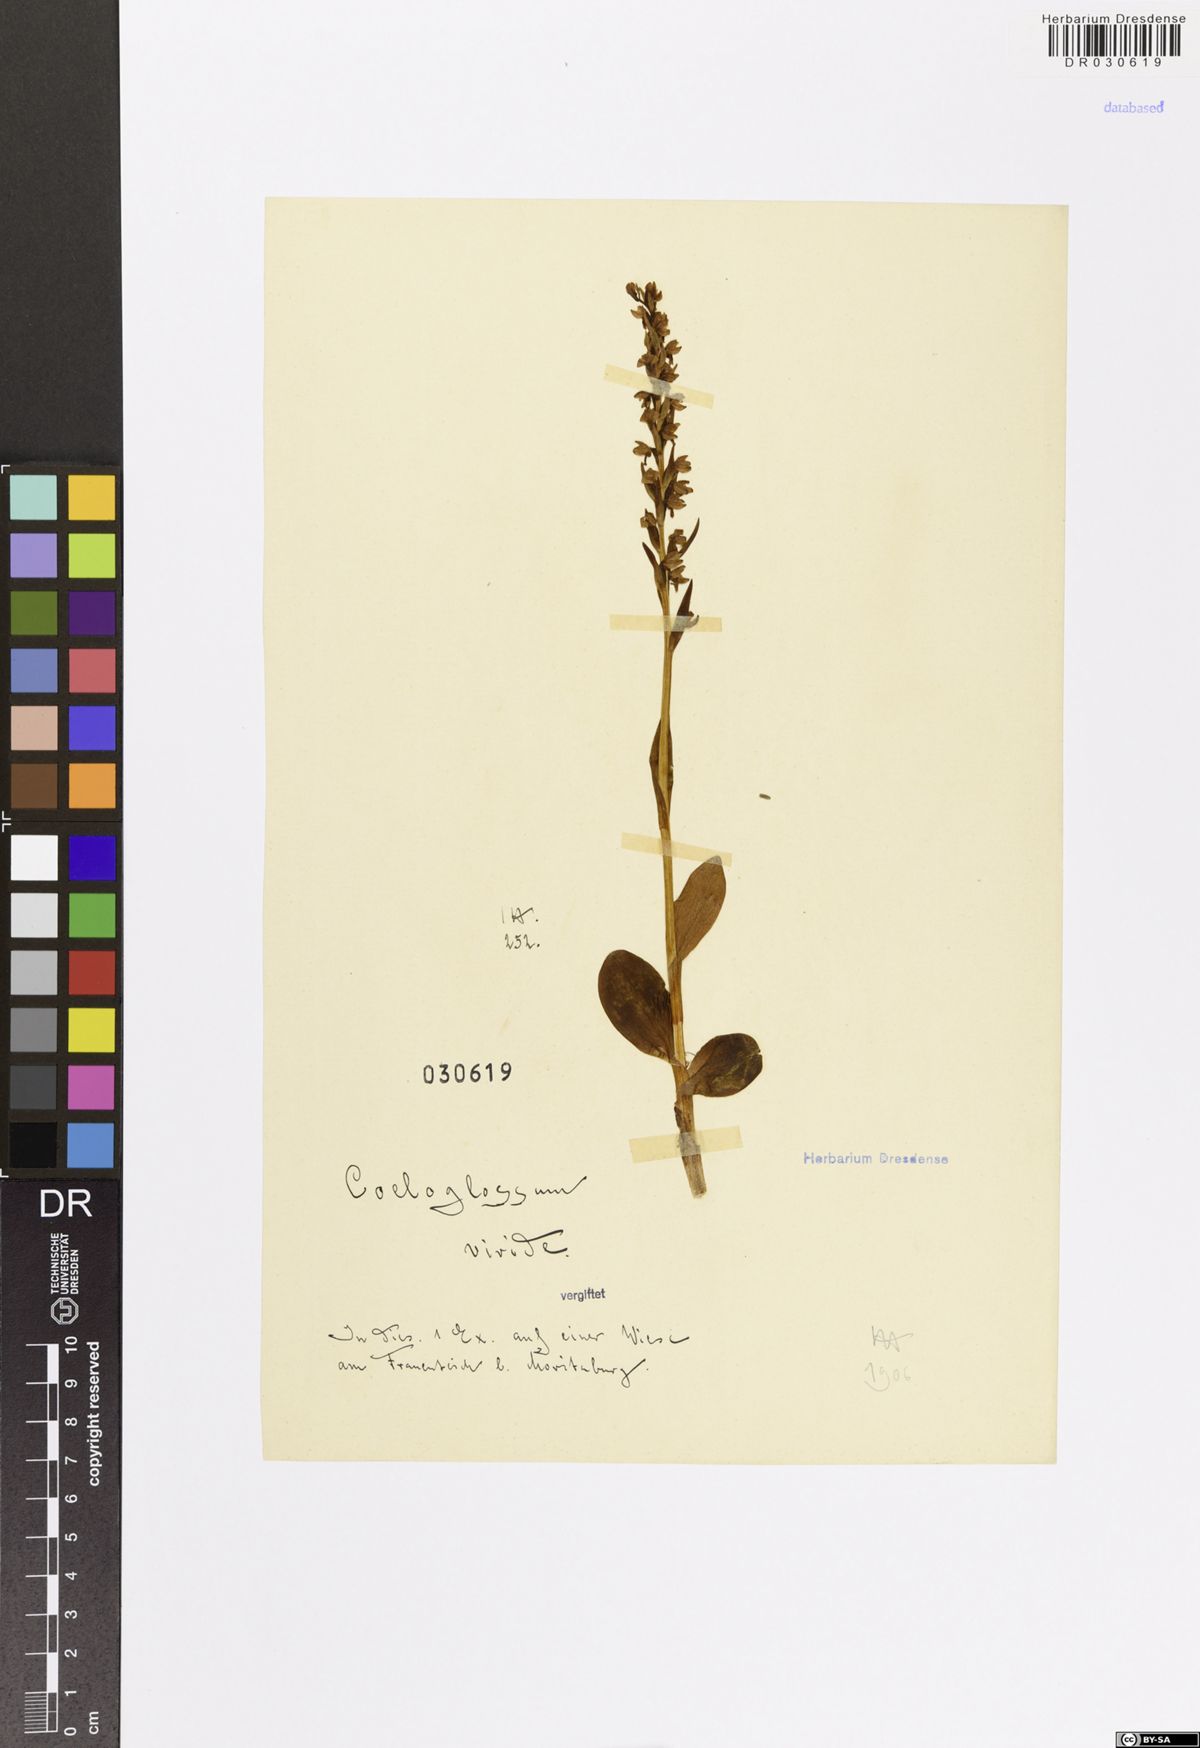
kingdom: Plantae
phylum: Tracheophyta
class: Liliopsida
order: Asparagales
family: Orchidaceae
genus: Dactylorhiza
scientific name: Dactylorhiza viridis
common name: Longbract frog orchid
